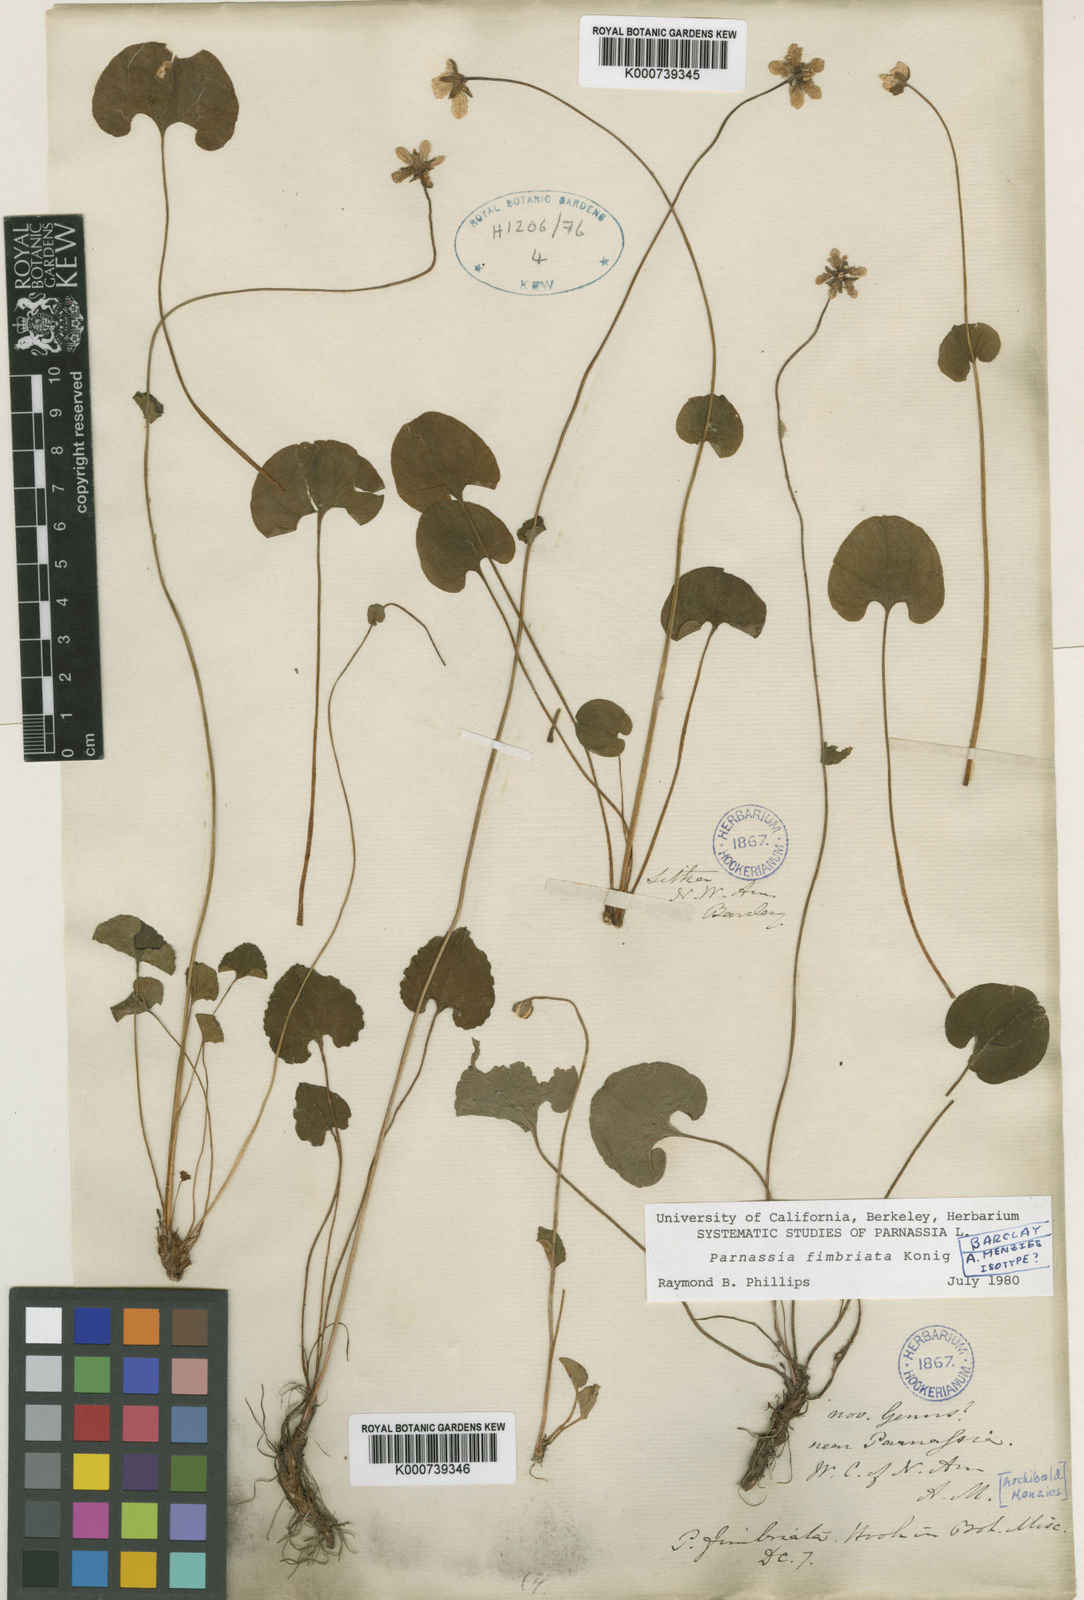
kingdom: Plantae
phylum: Tracheophyta
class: Magnoliopsida
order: Celastrales
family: Parnassiaceae
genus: Parnassia
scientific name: Parnassia fimbriata
